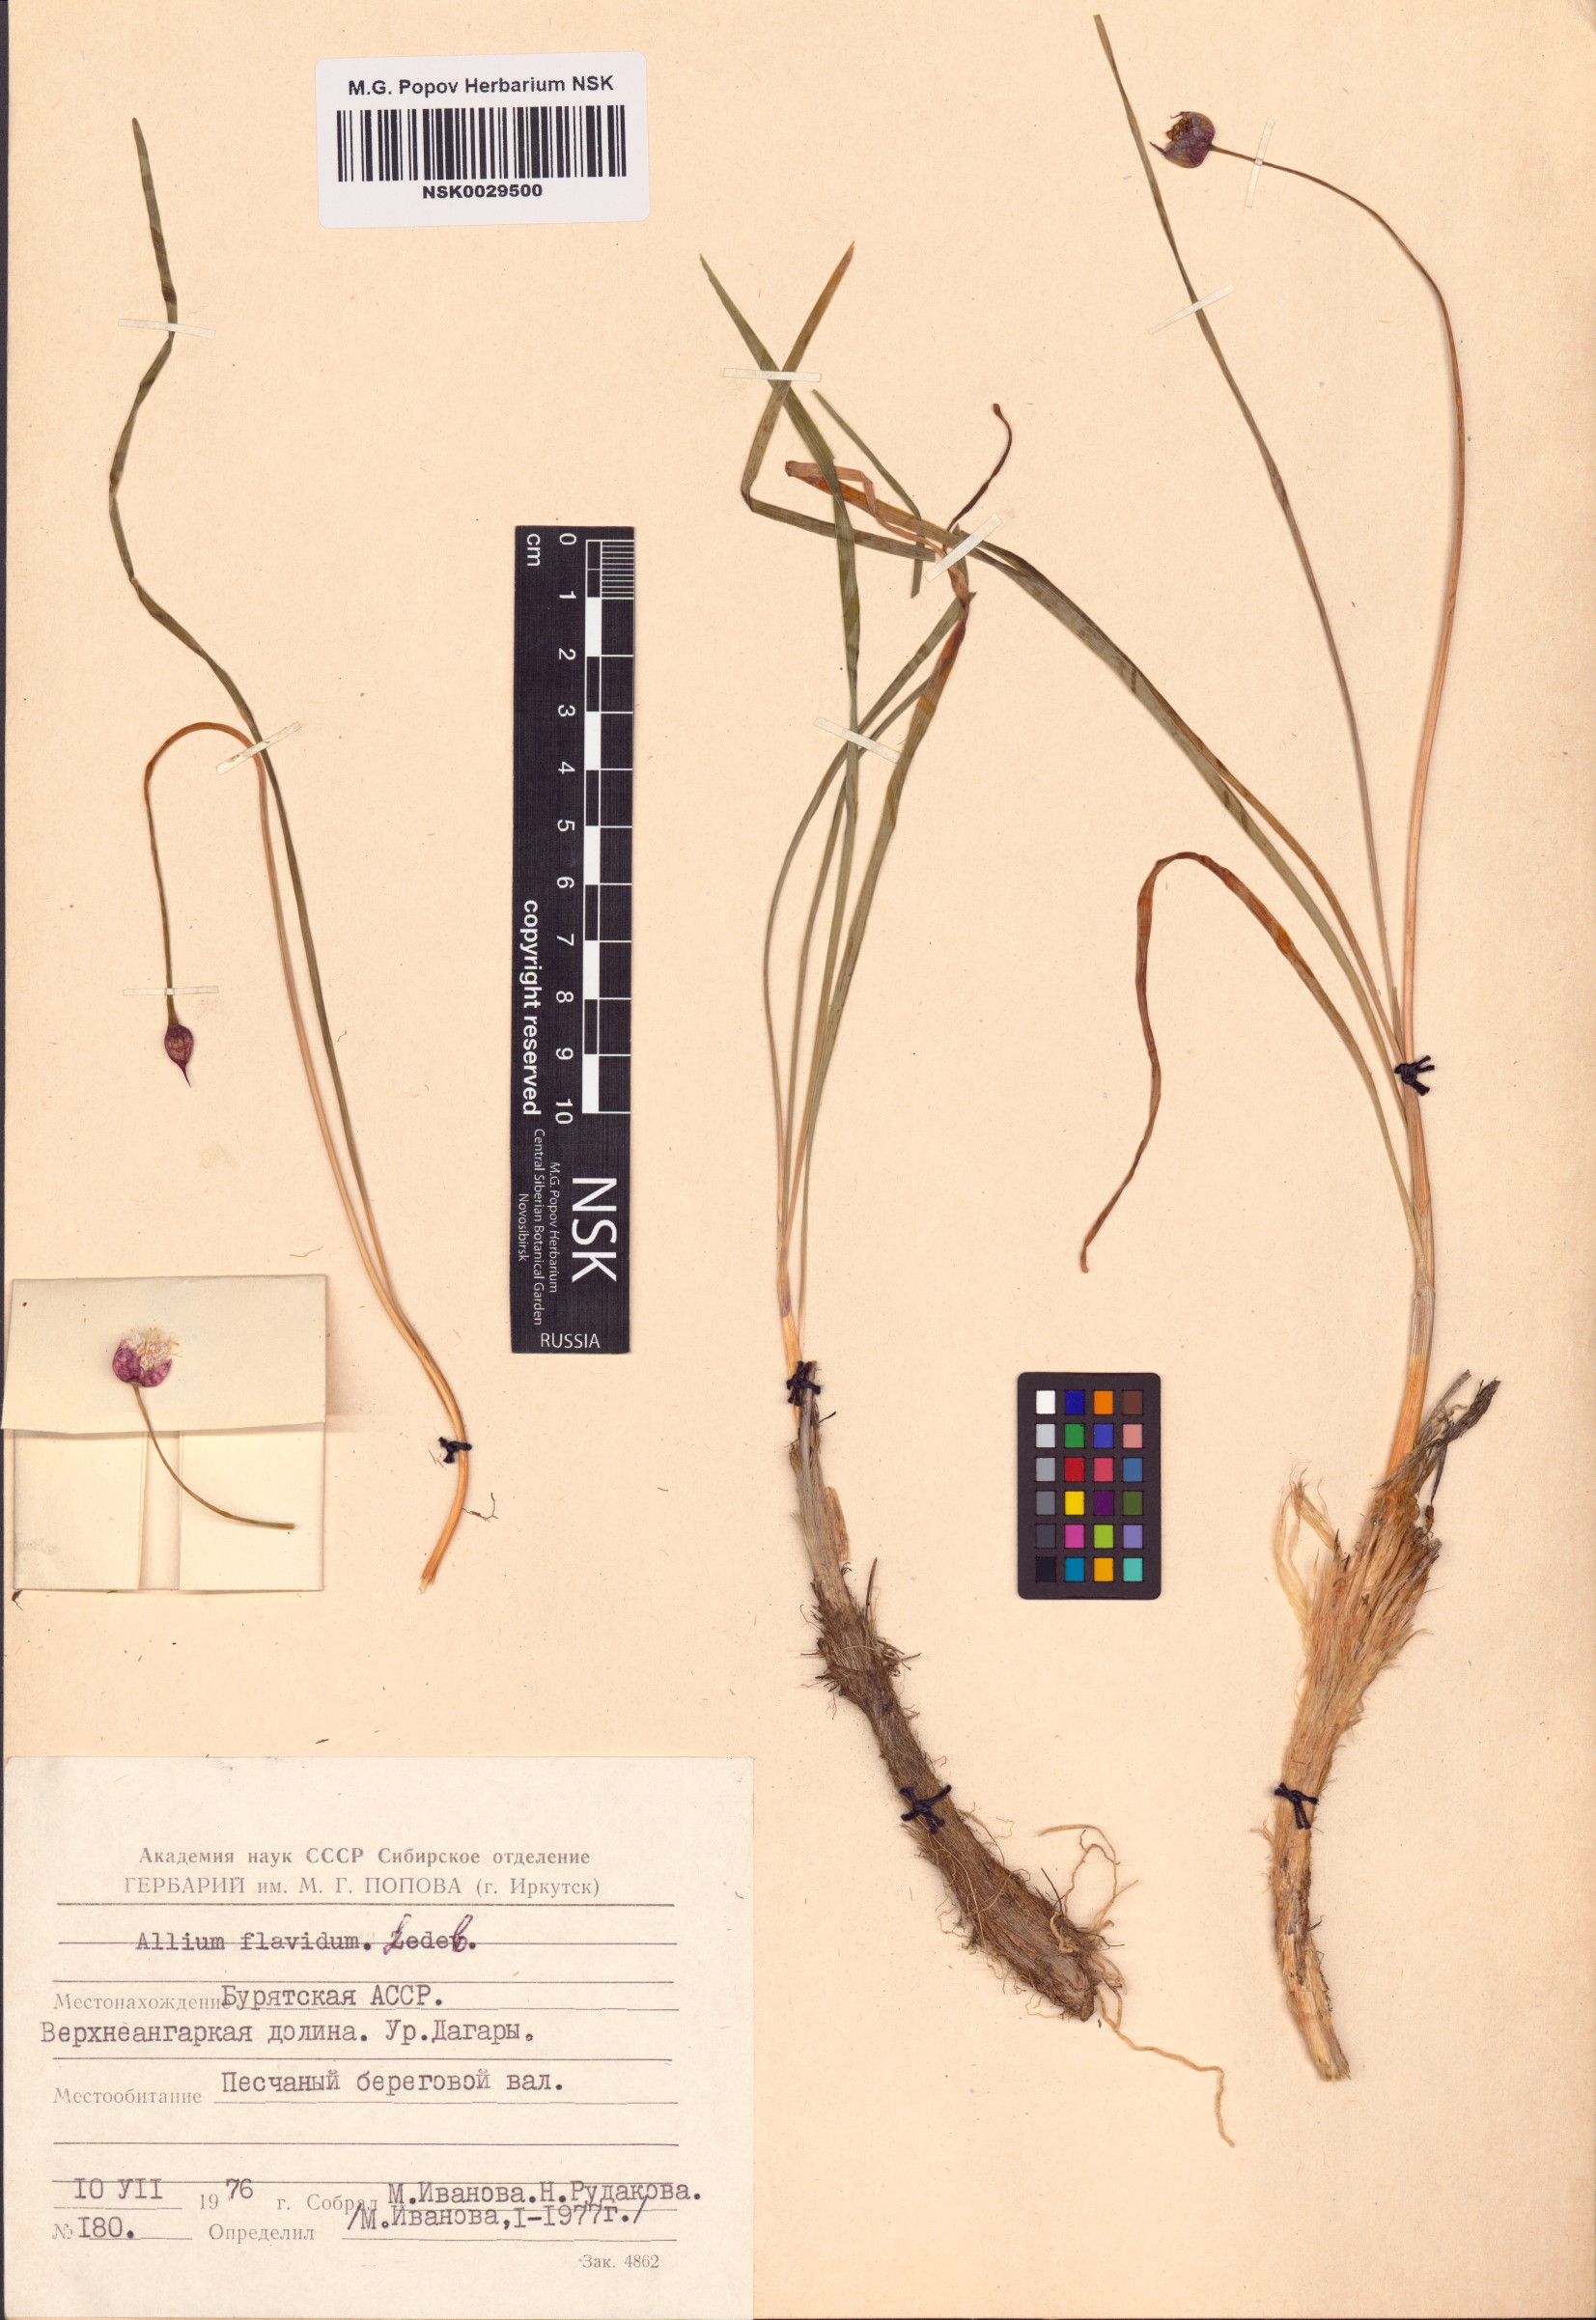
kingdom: Plantae
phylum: Tracheophyta
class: Liliopsida
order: Asparagales
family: Amaryllidaceae
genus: Allium
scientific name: Allium flavidum
